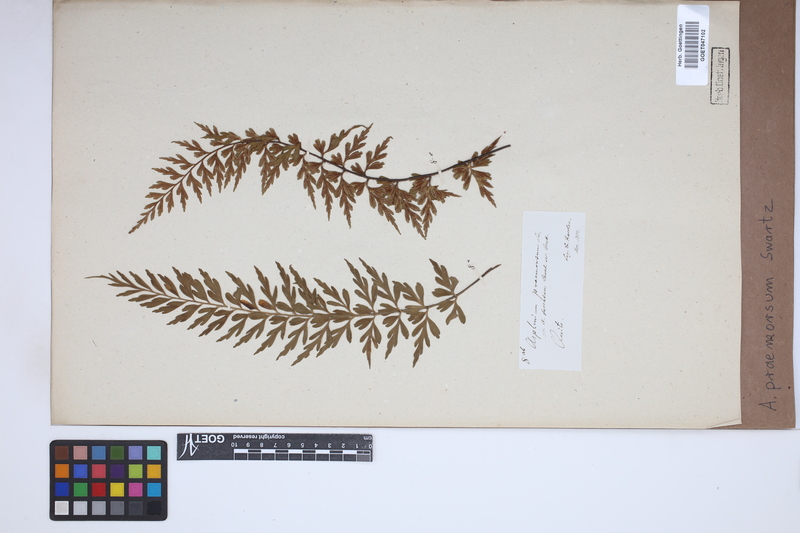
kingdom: Plantae
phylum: Tracheophyta
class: Polypodiopsida
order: Polypodiales
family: Aspleniaceae
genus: Asplenium
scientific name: Asplenium praemorsum
